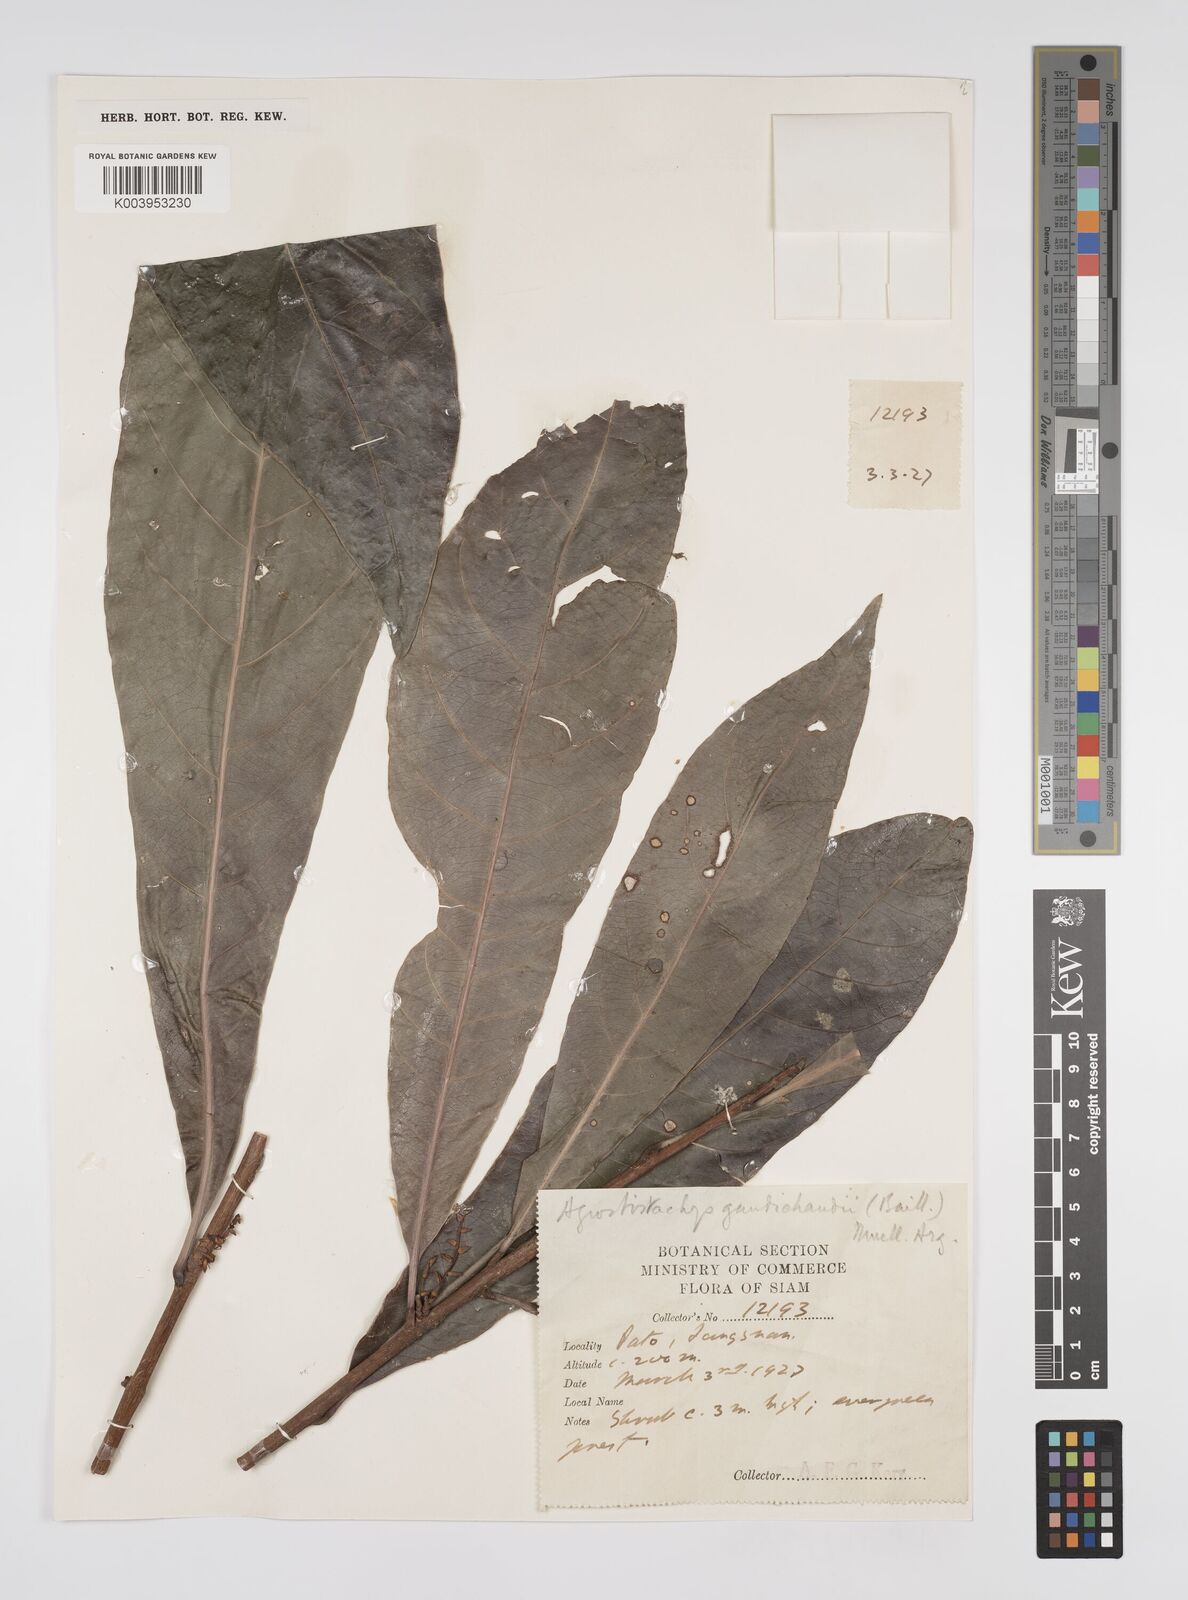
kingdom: Plantae
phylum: Tracheophyta
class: Magnoliopsida
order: Malpighiales
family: Euphorbiaceae
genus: Agrostistachys
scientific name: Agrostistachys gaudichaudii
